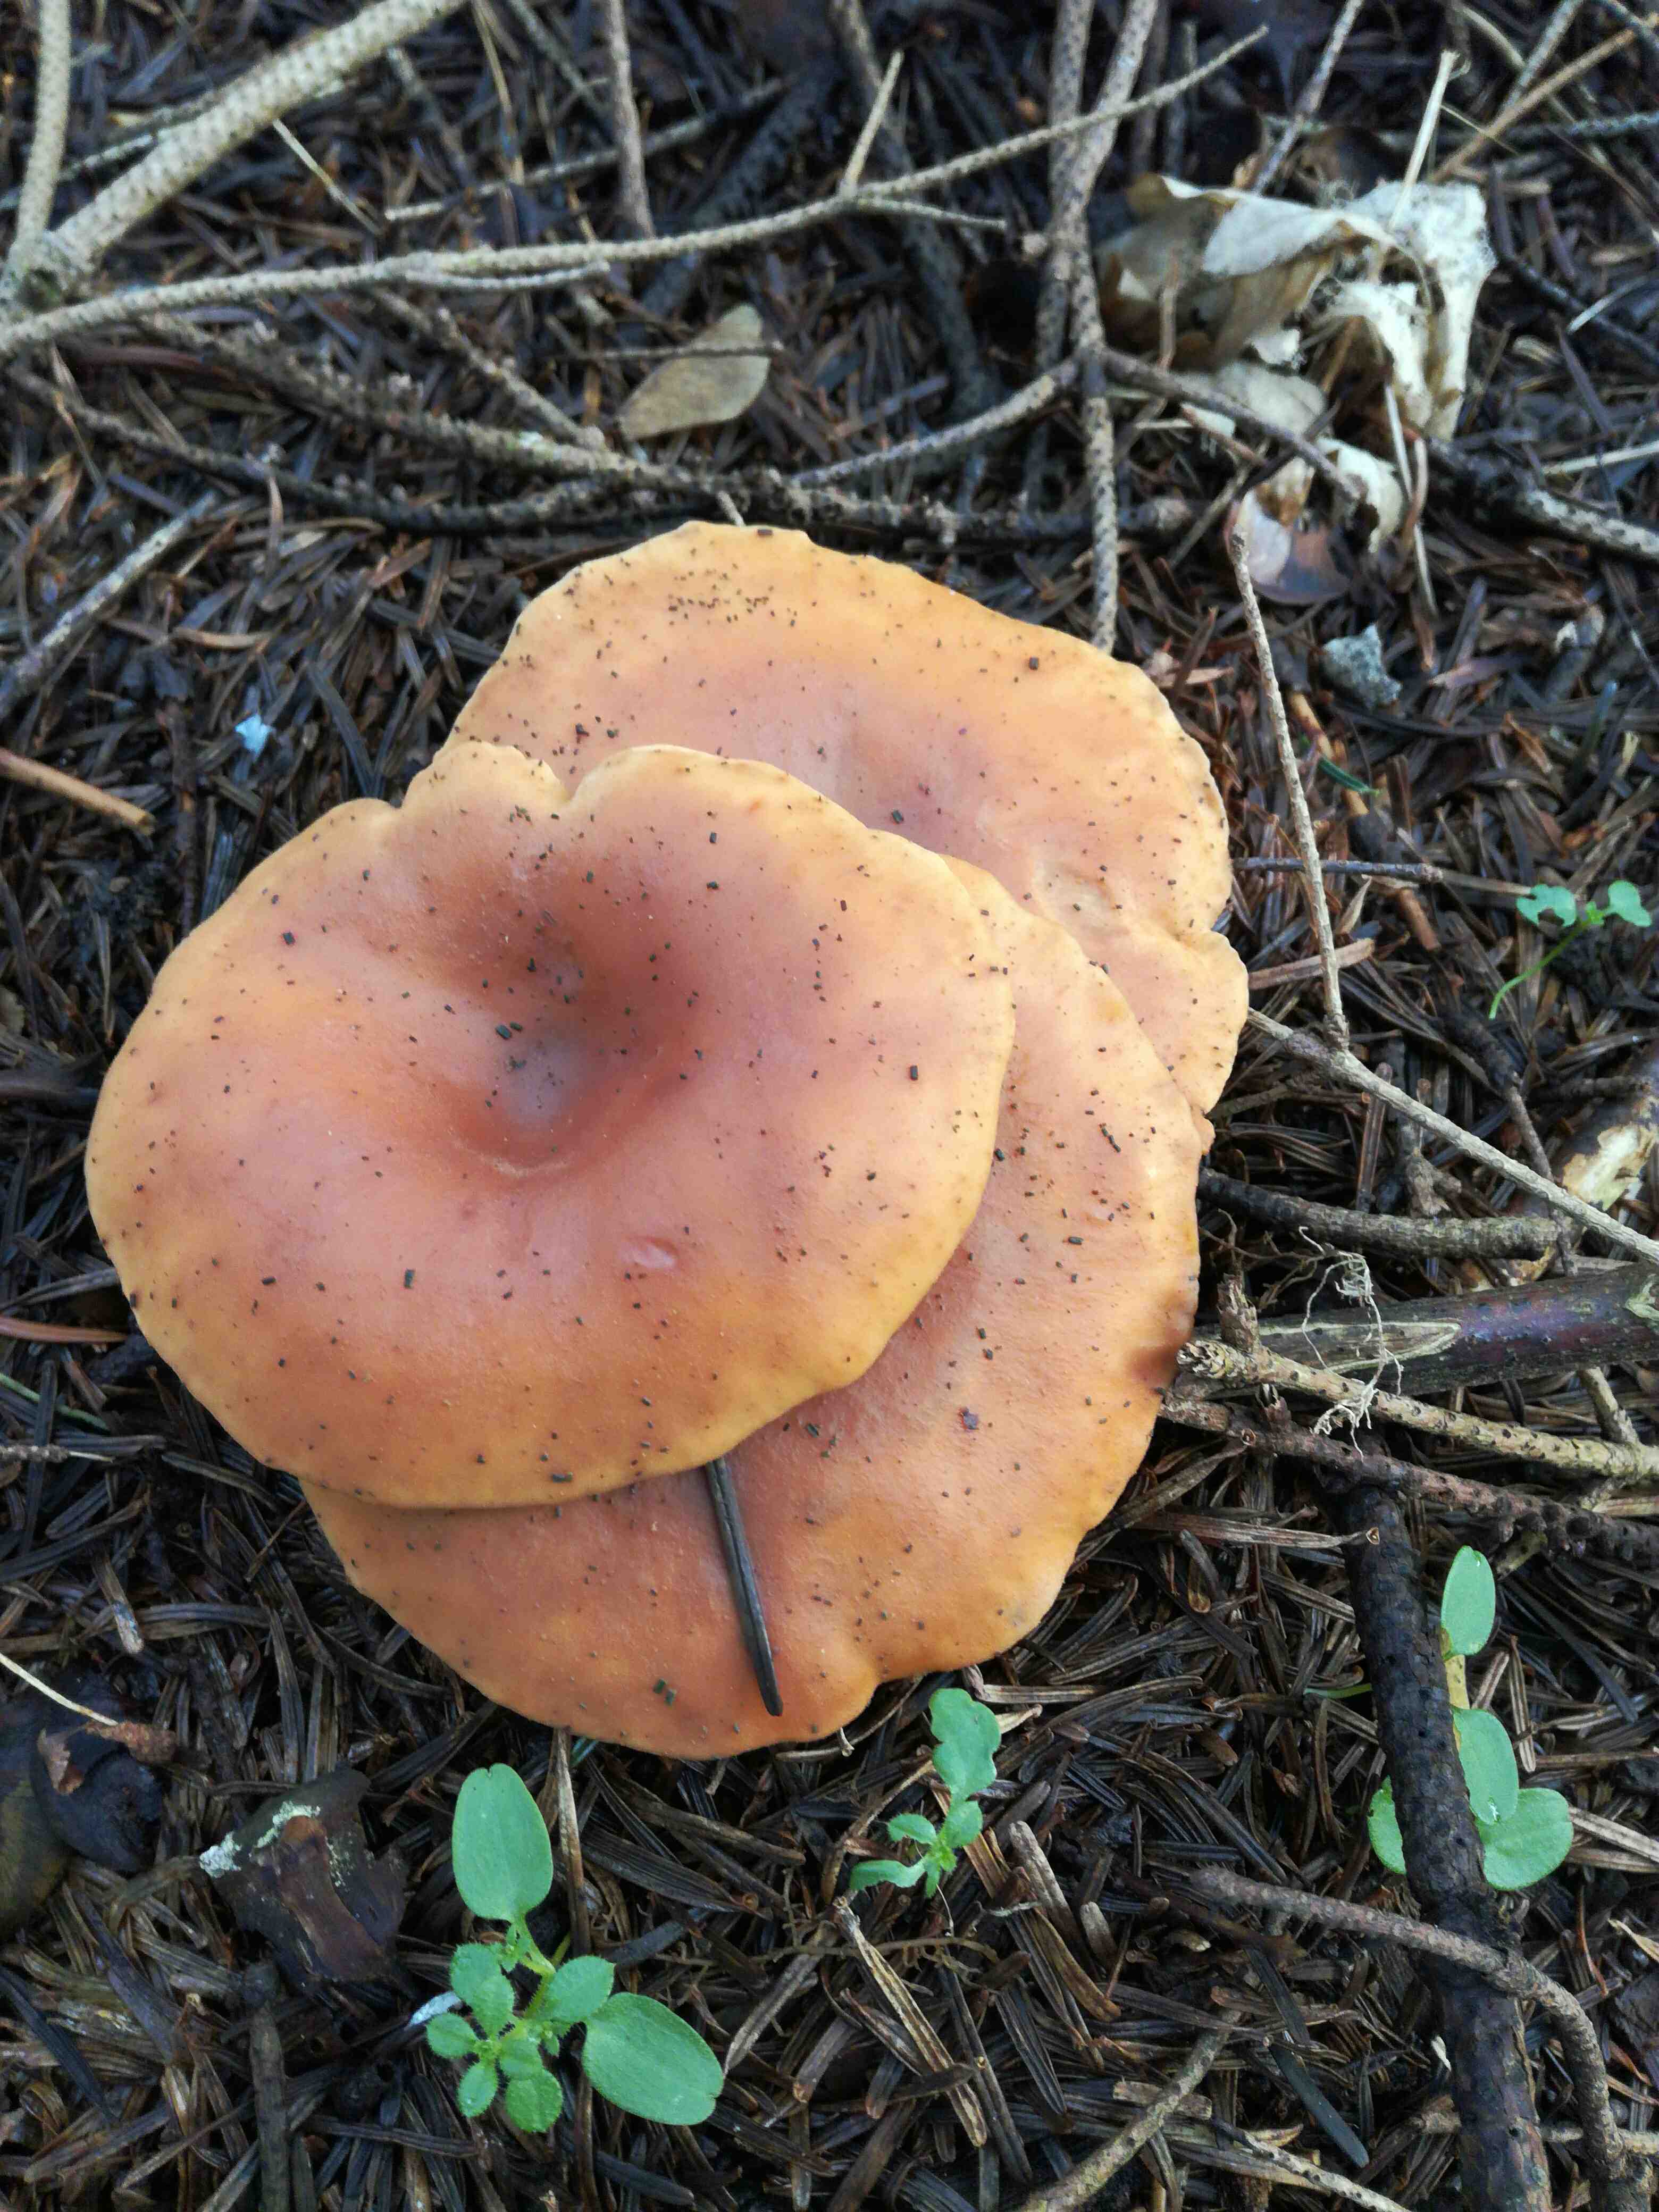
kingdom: Fungi
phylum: Basidiomycota
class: Agaricomycetes
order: Agaricales
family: Tricholomataceae
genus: Paralepista
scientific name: Paralepista flaccida
